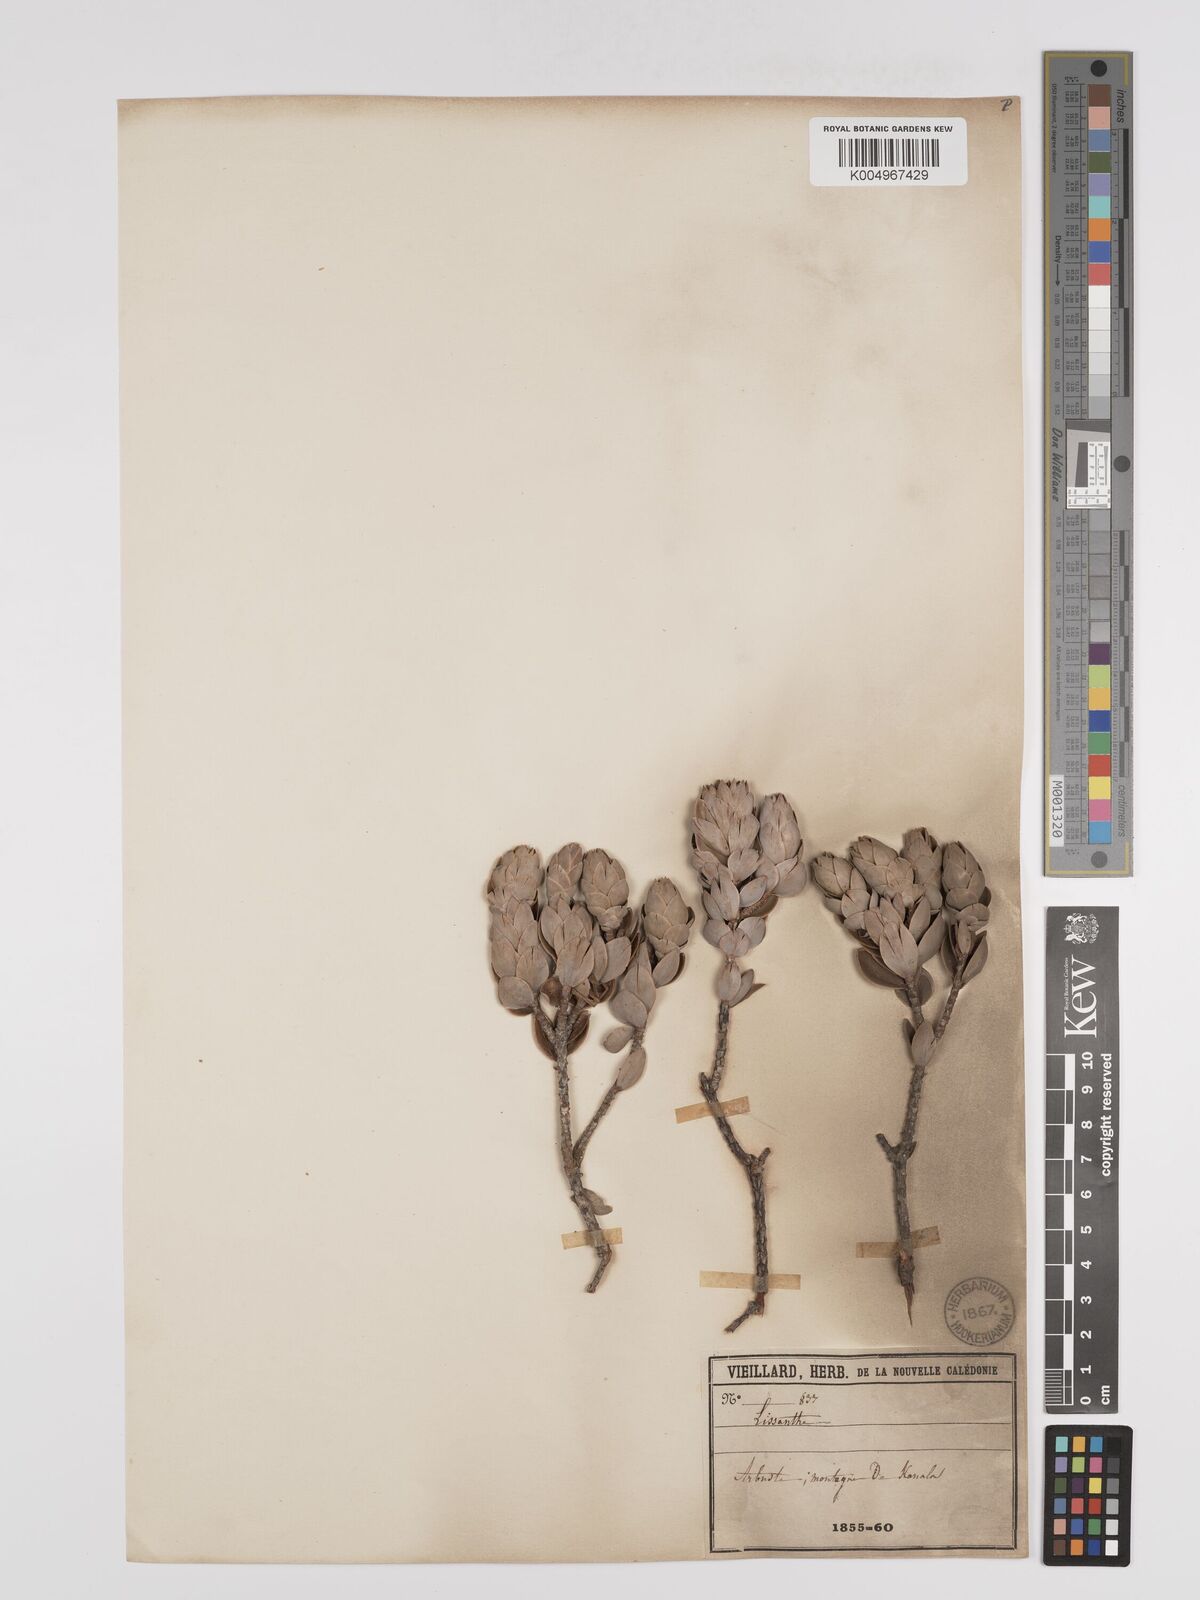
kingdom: Plantae
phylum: Tracheophyta
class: Magnoliopsida
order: Ericales
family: Ericaceae
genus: Cyathopsis
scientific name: Cyathopsis albicans
